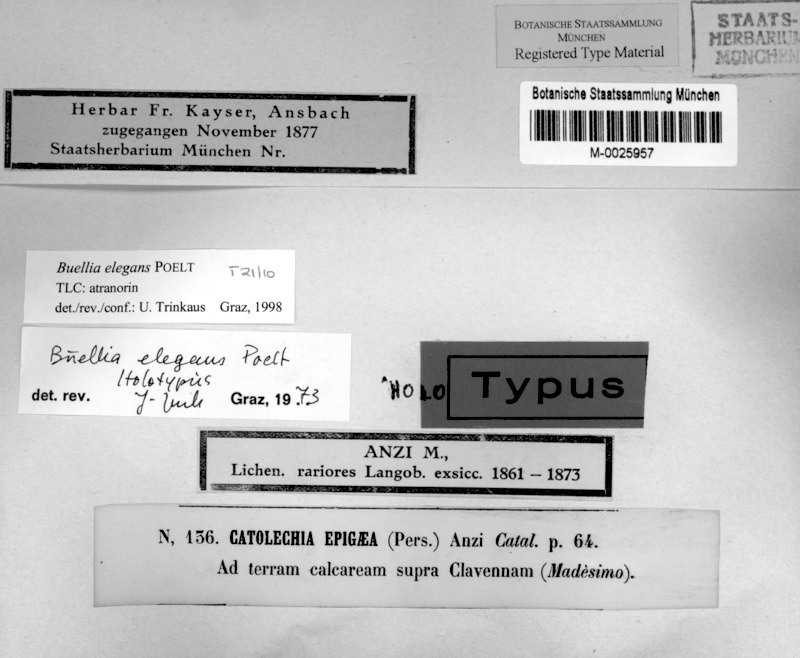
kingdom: Fungi
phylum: Ascomycota
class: Lecanoromycetes
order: Caliciales
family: Caliciaceae
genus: Buellia
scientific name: Buellia elegans
